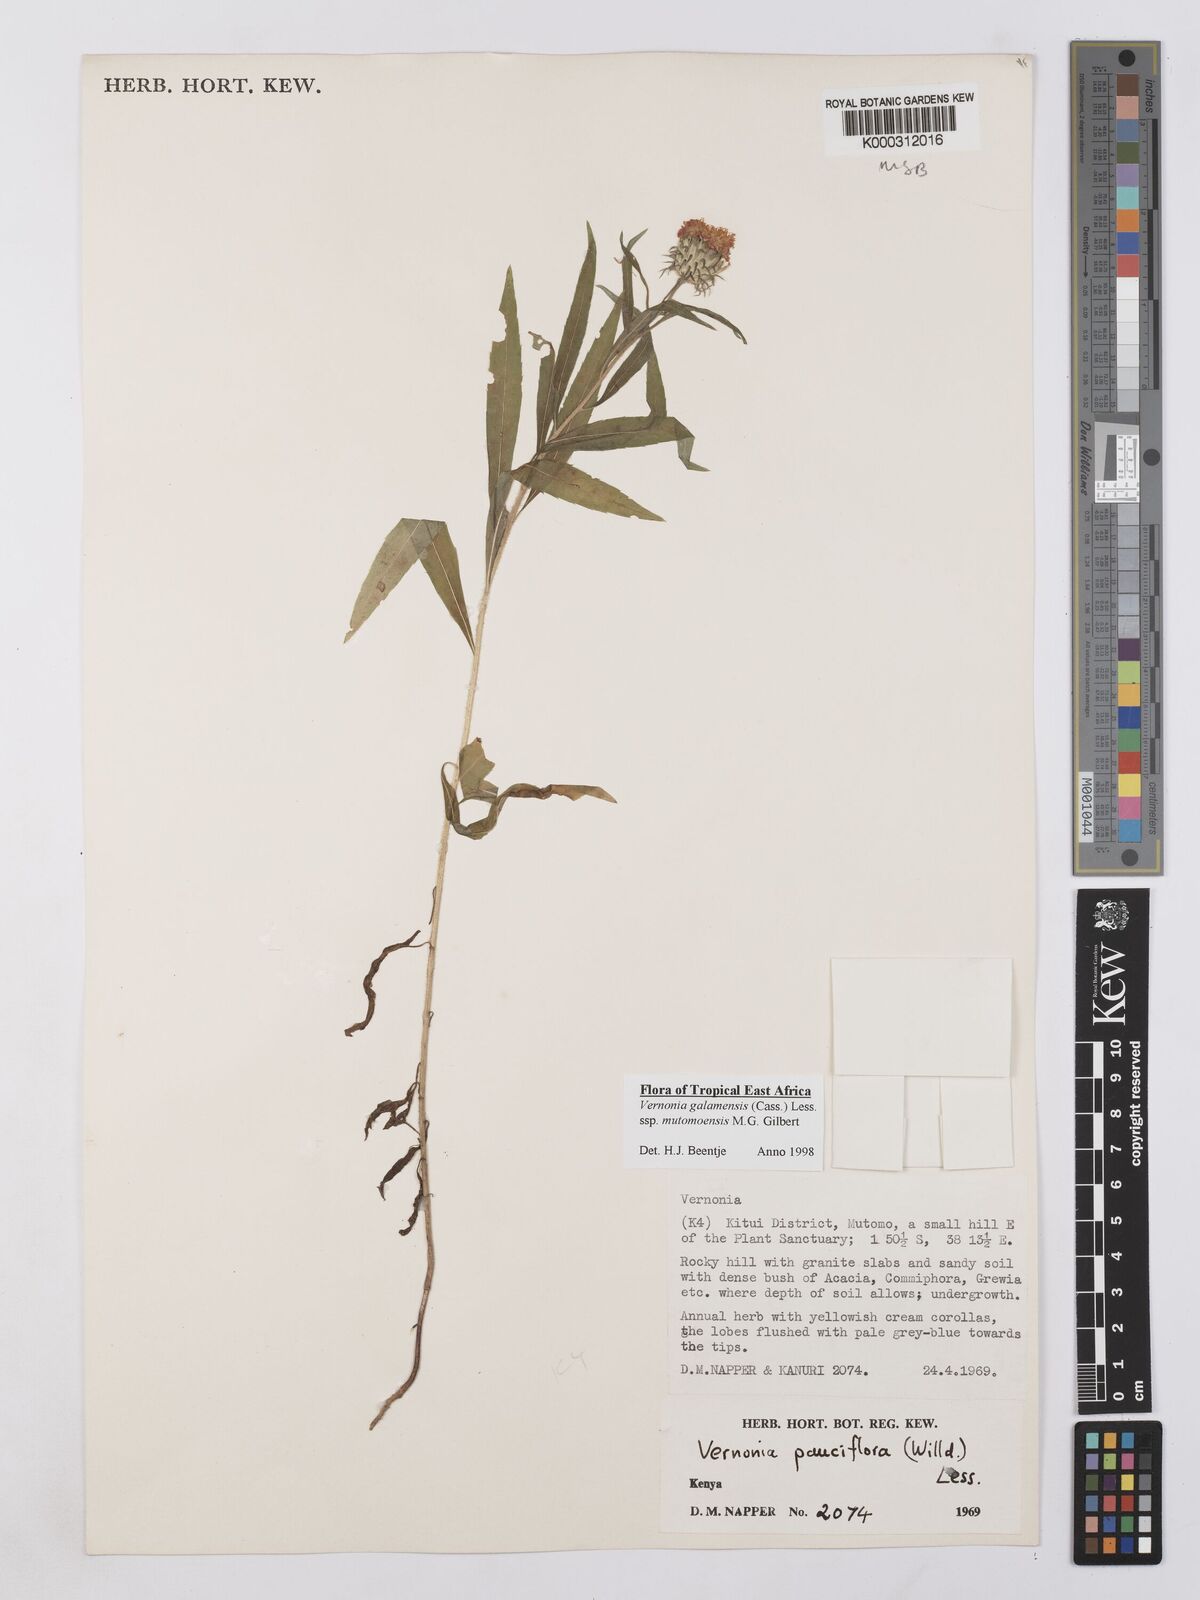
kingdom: Plantae
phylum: Tracheophyta
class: Magnoliopsida
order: Asterales
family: Asteraceae
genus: Vernonia
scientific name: Vernonia galamensis
